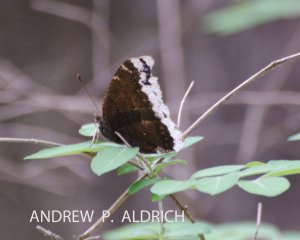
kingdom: Animalia
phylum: Arthropoda
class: Insecta
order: Lepidoptera
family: Nymphalidae
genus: Nymphalis
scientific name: Nymphalis antiopa
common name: Mourning Cloak
